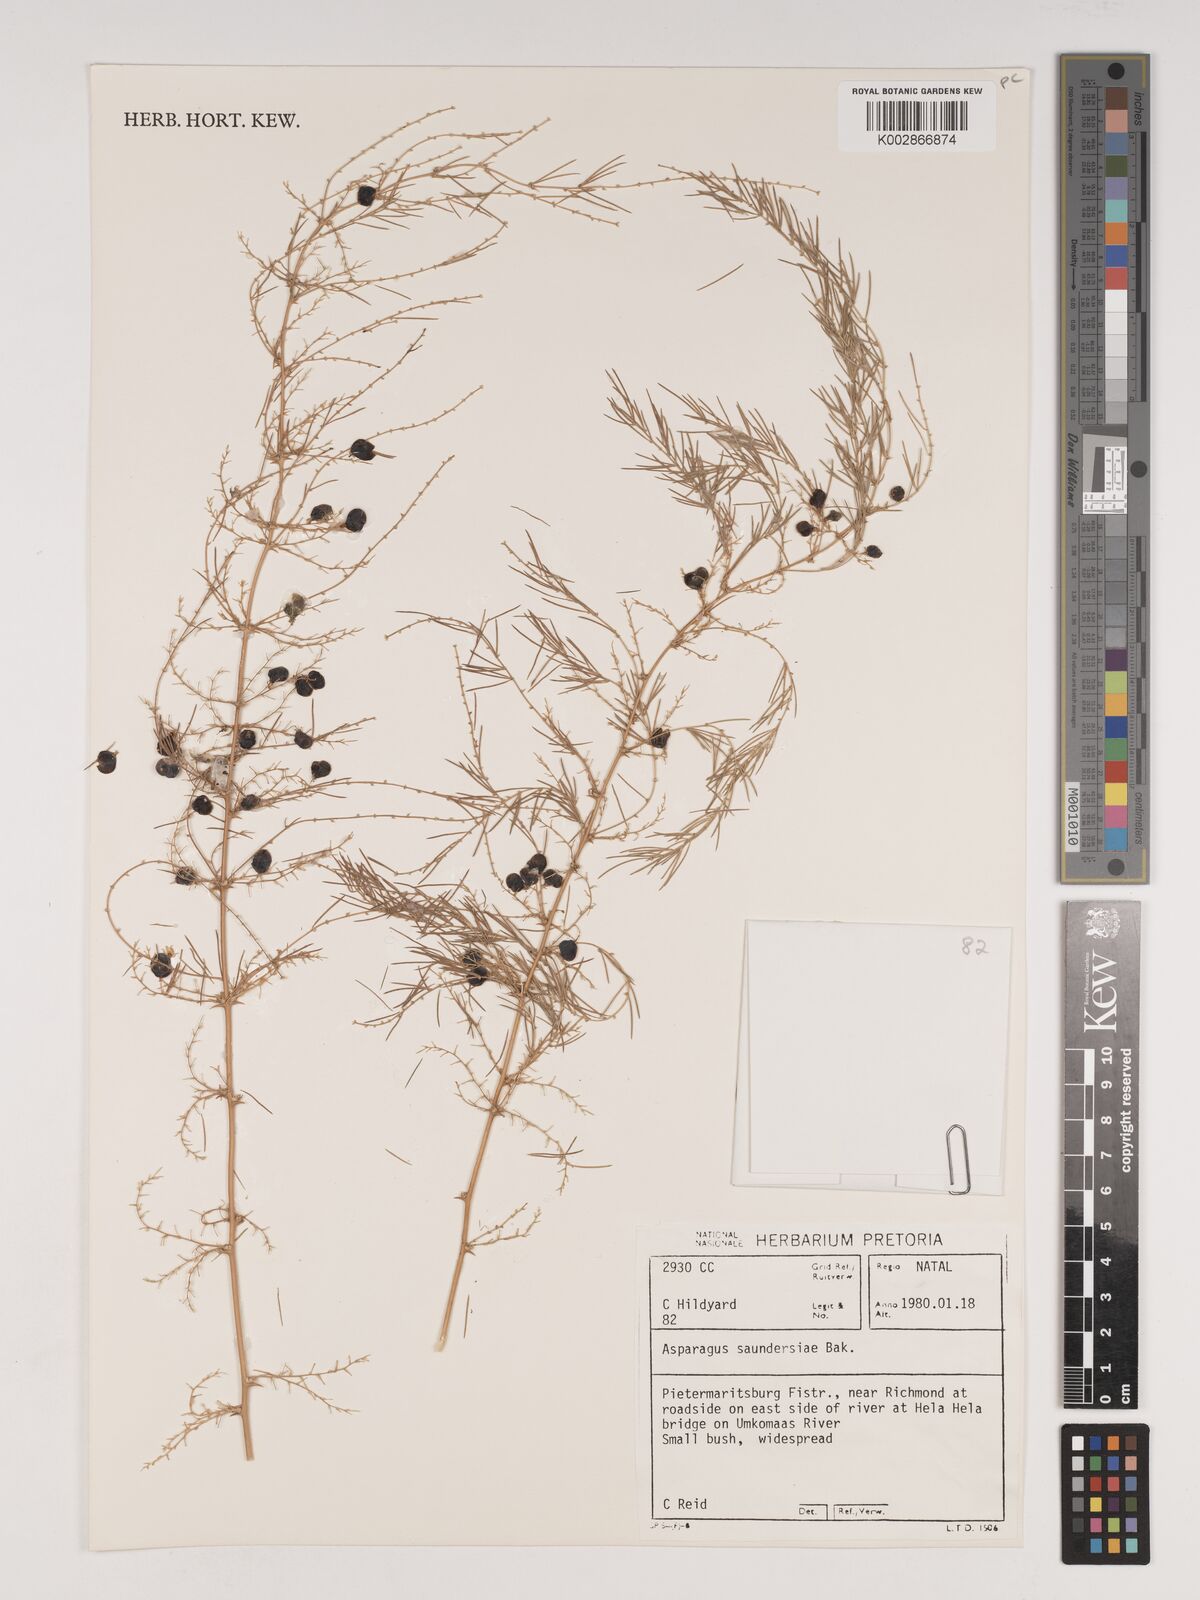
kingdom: Plantae
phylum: Tracheophyta
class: Liliopsida
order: Asparagales
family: Asparagaceae
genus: Asparagus
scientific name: Asparagus saundersiae
